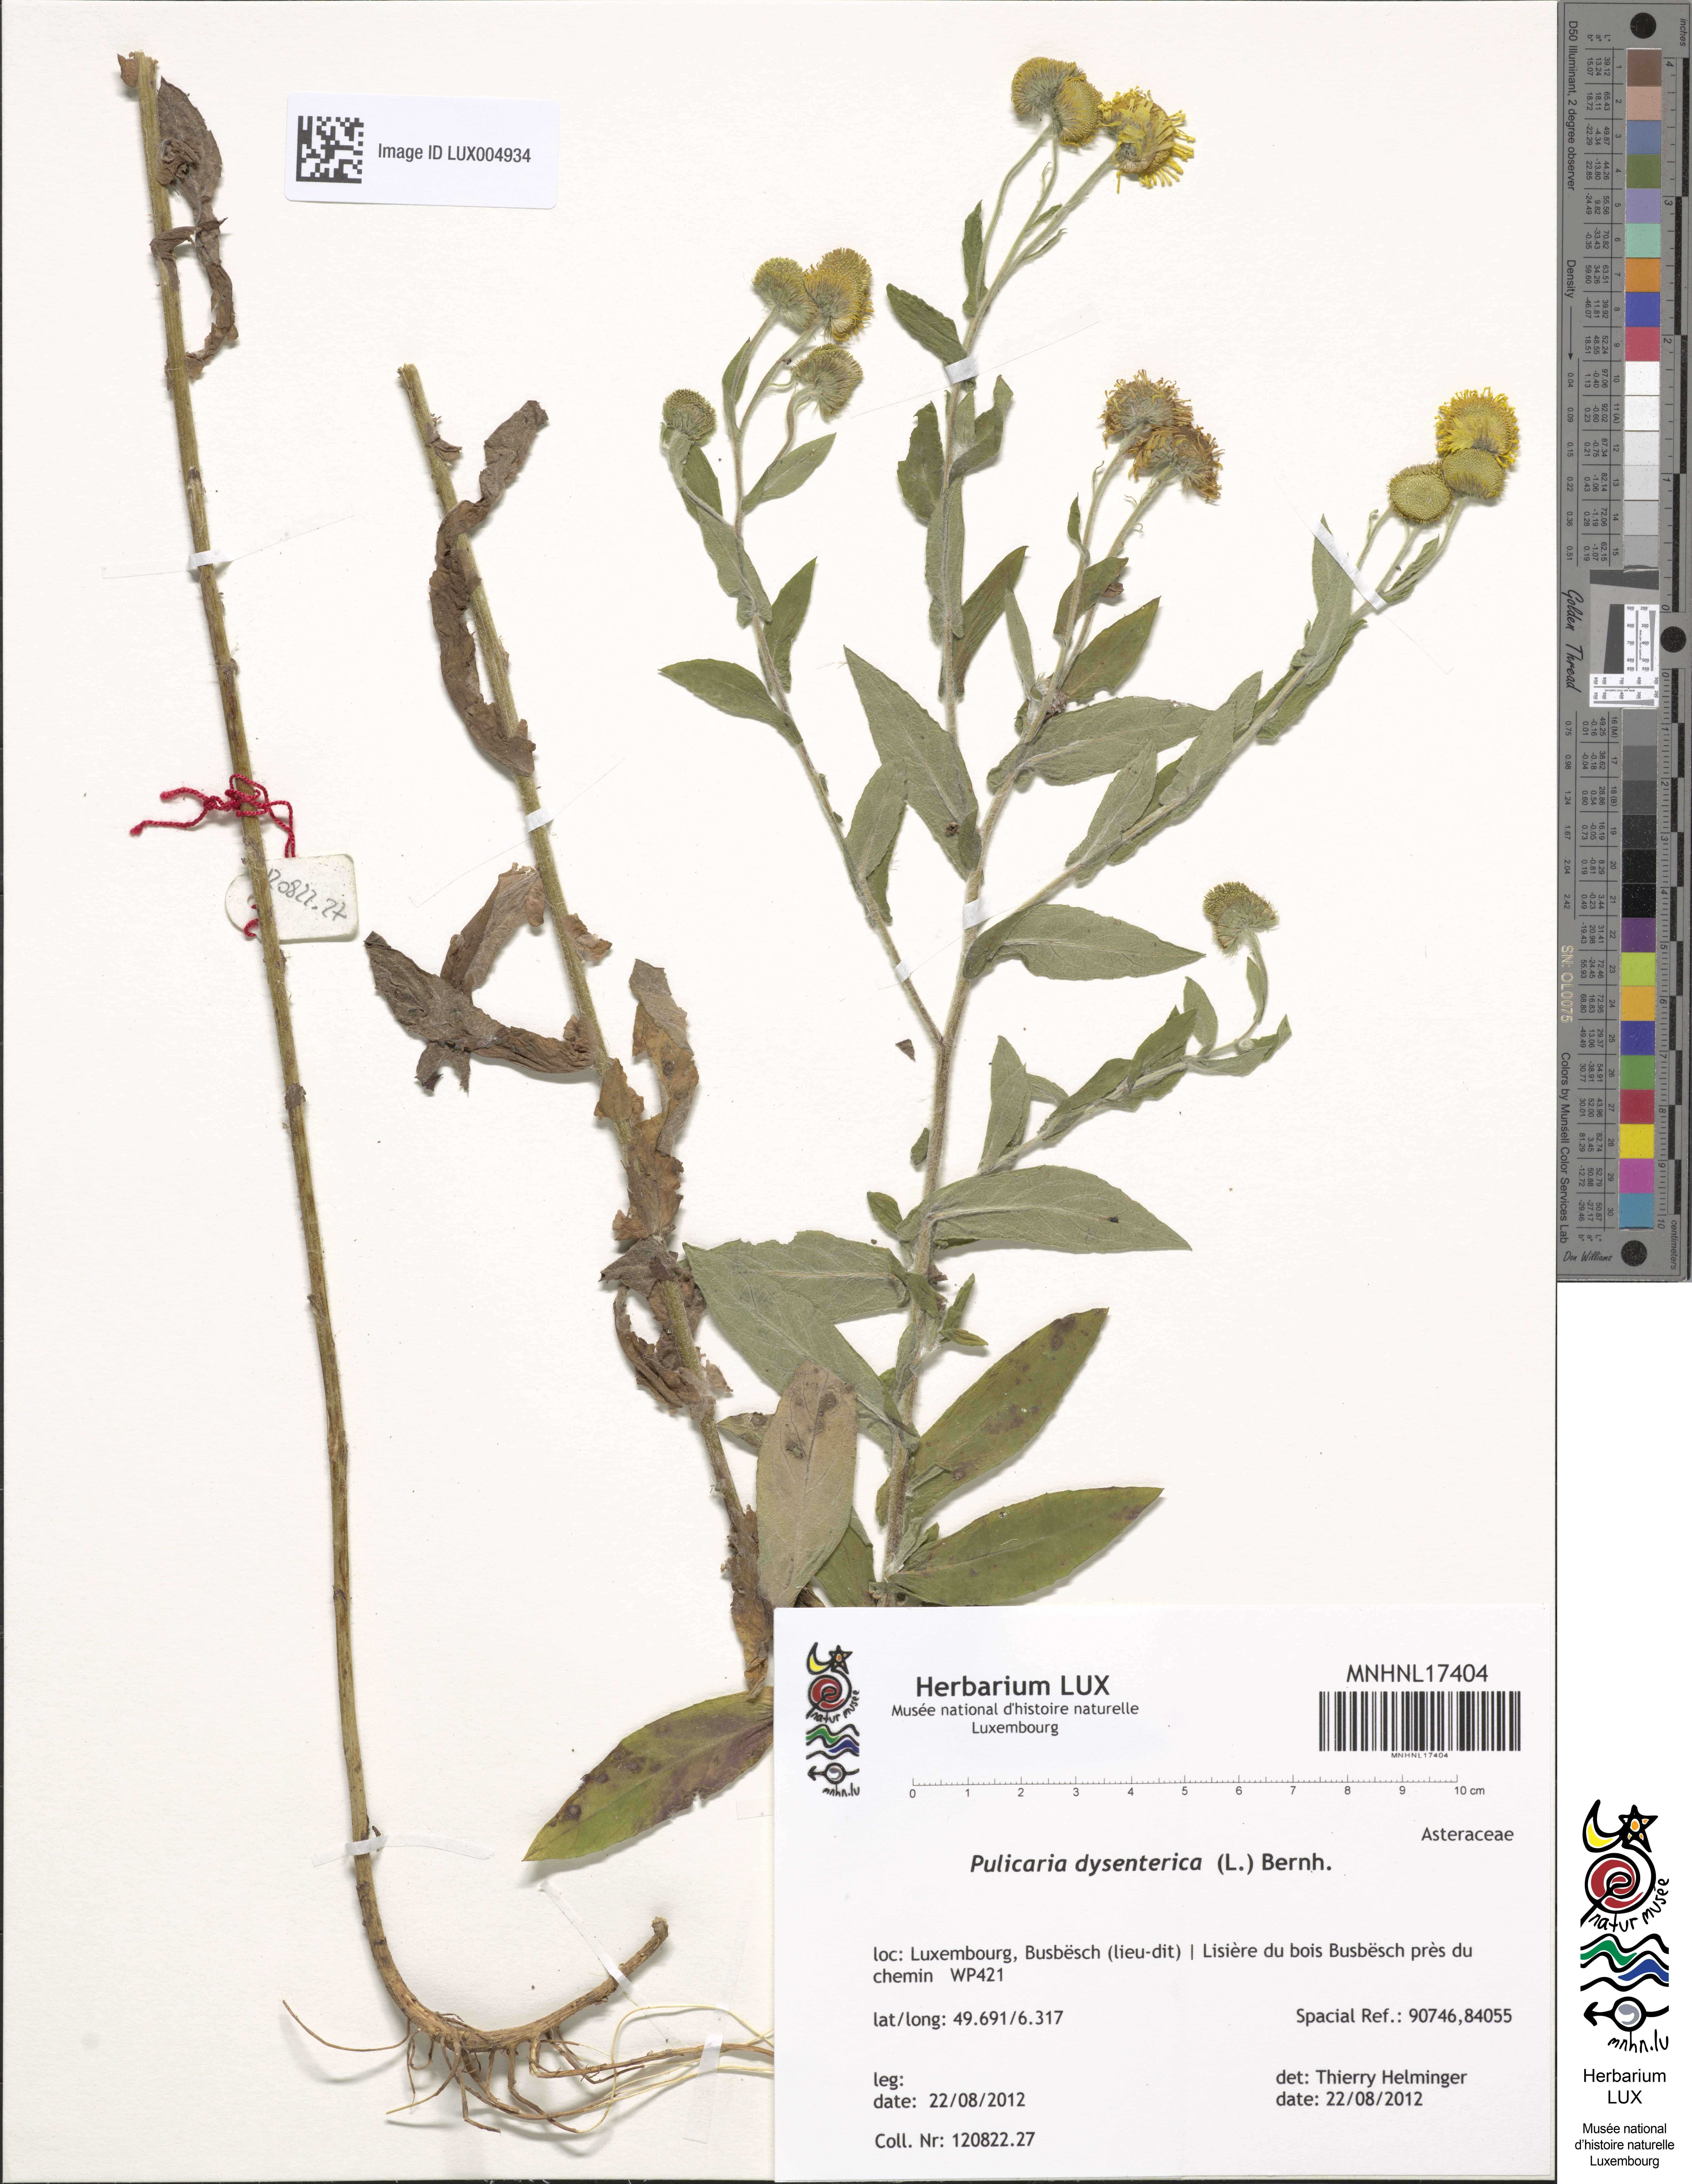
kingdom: Plantae
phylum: Tracheophyta
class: Magnoliopsida
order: Asterales
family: Asteraceae
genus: Pulicaria
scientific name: Pulicaria dysenterica
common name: Common fleabane
